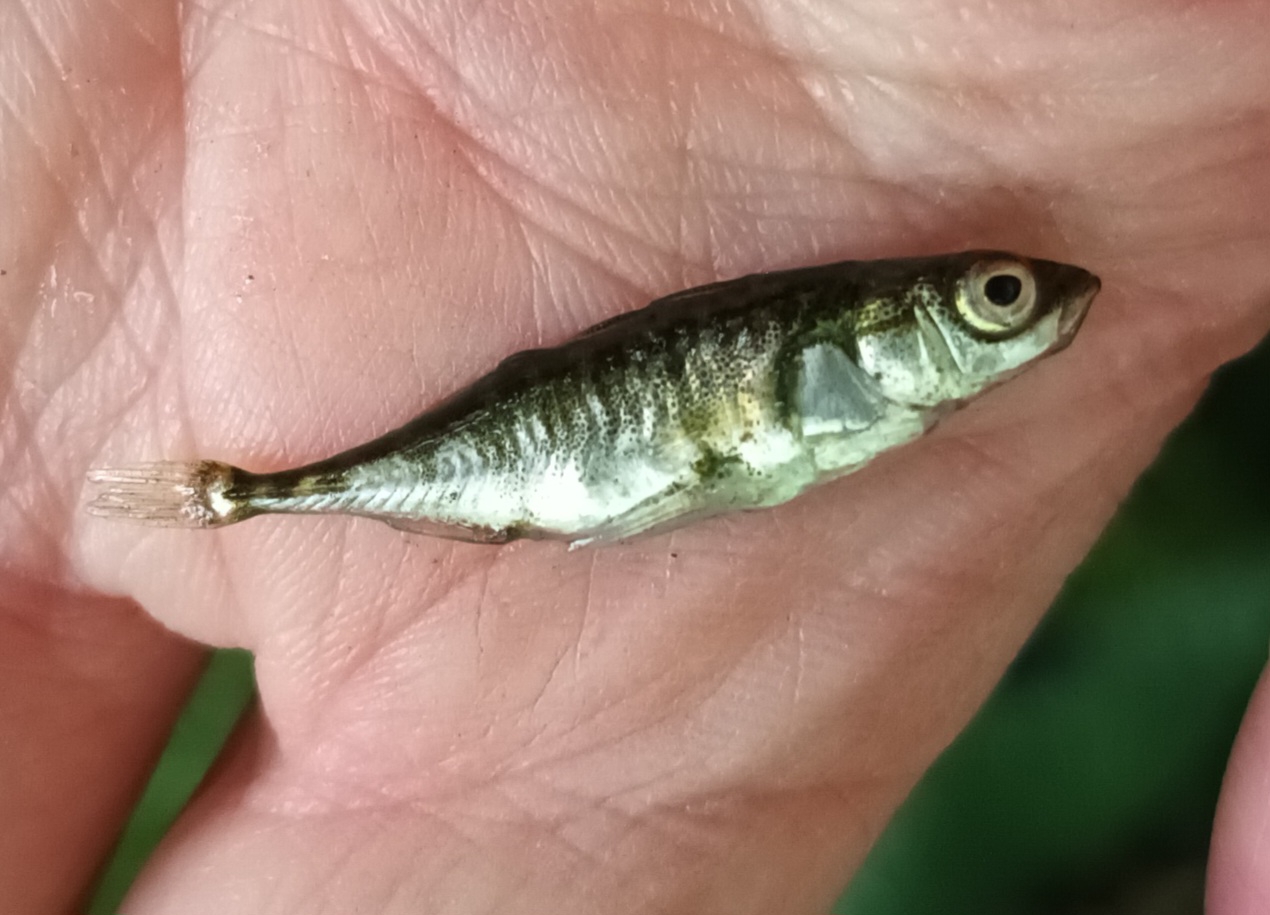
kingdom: Animalia
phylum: Chordata
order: Gasterosteiformes
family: Gasterosteidae
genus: Gasterosteus
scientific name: Gasterosteus aculeatus
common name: Trepigget hundestejle
